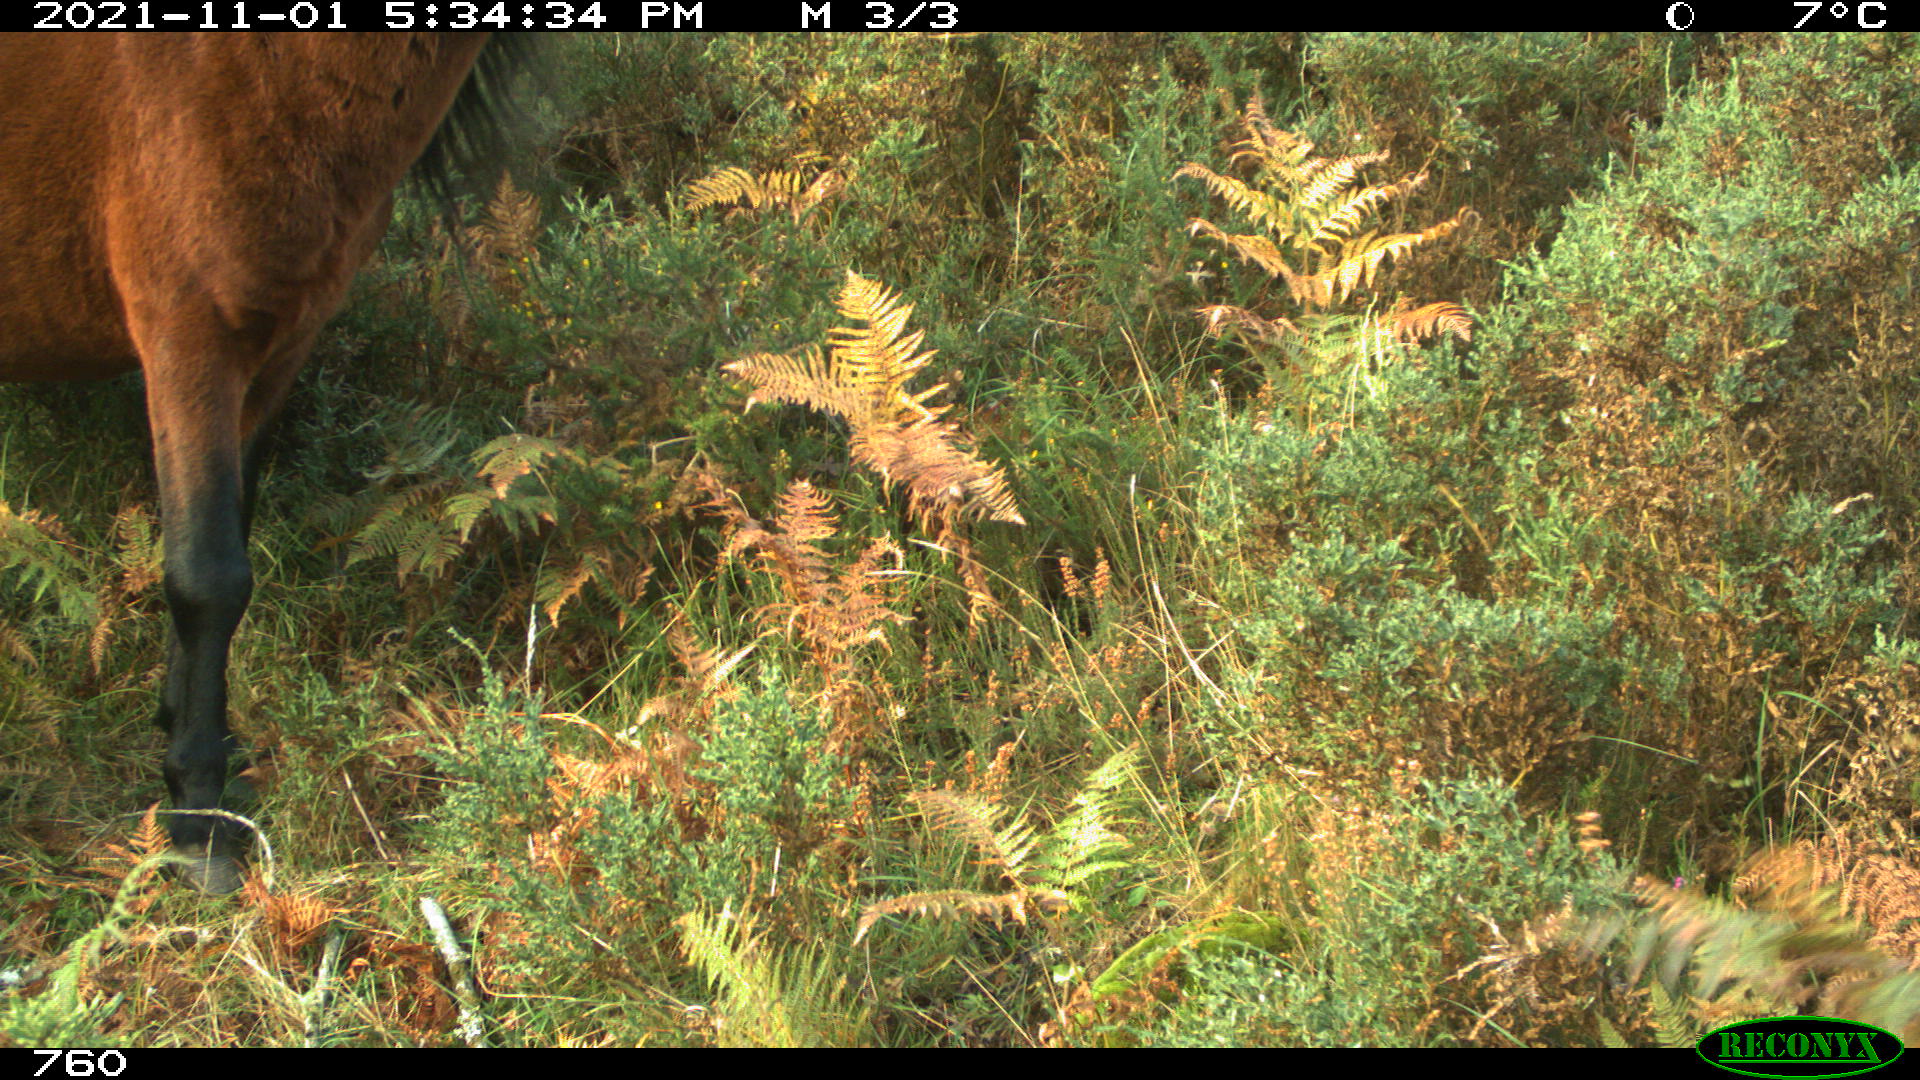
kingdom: Animalia
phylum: Chordata
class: Mammalia
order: Perissodactyla
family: Equidae
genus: Equus
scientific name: Equus caballus
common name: Horse
